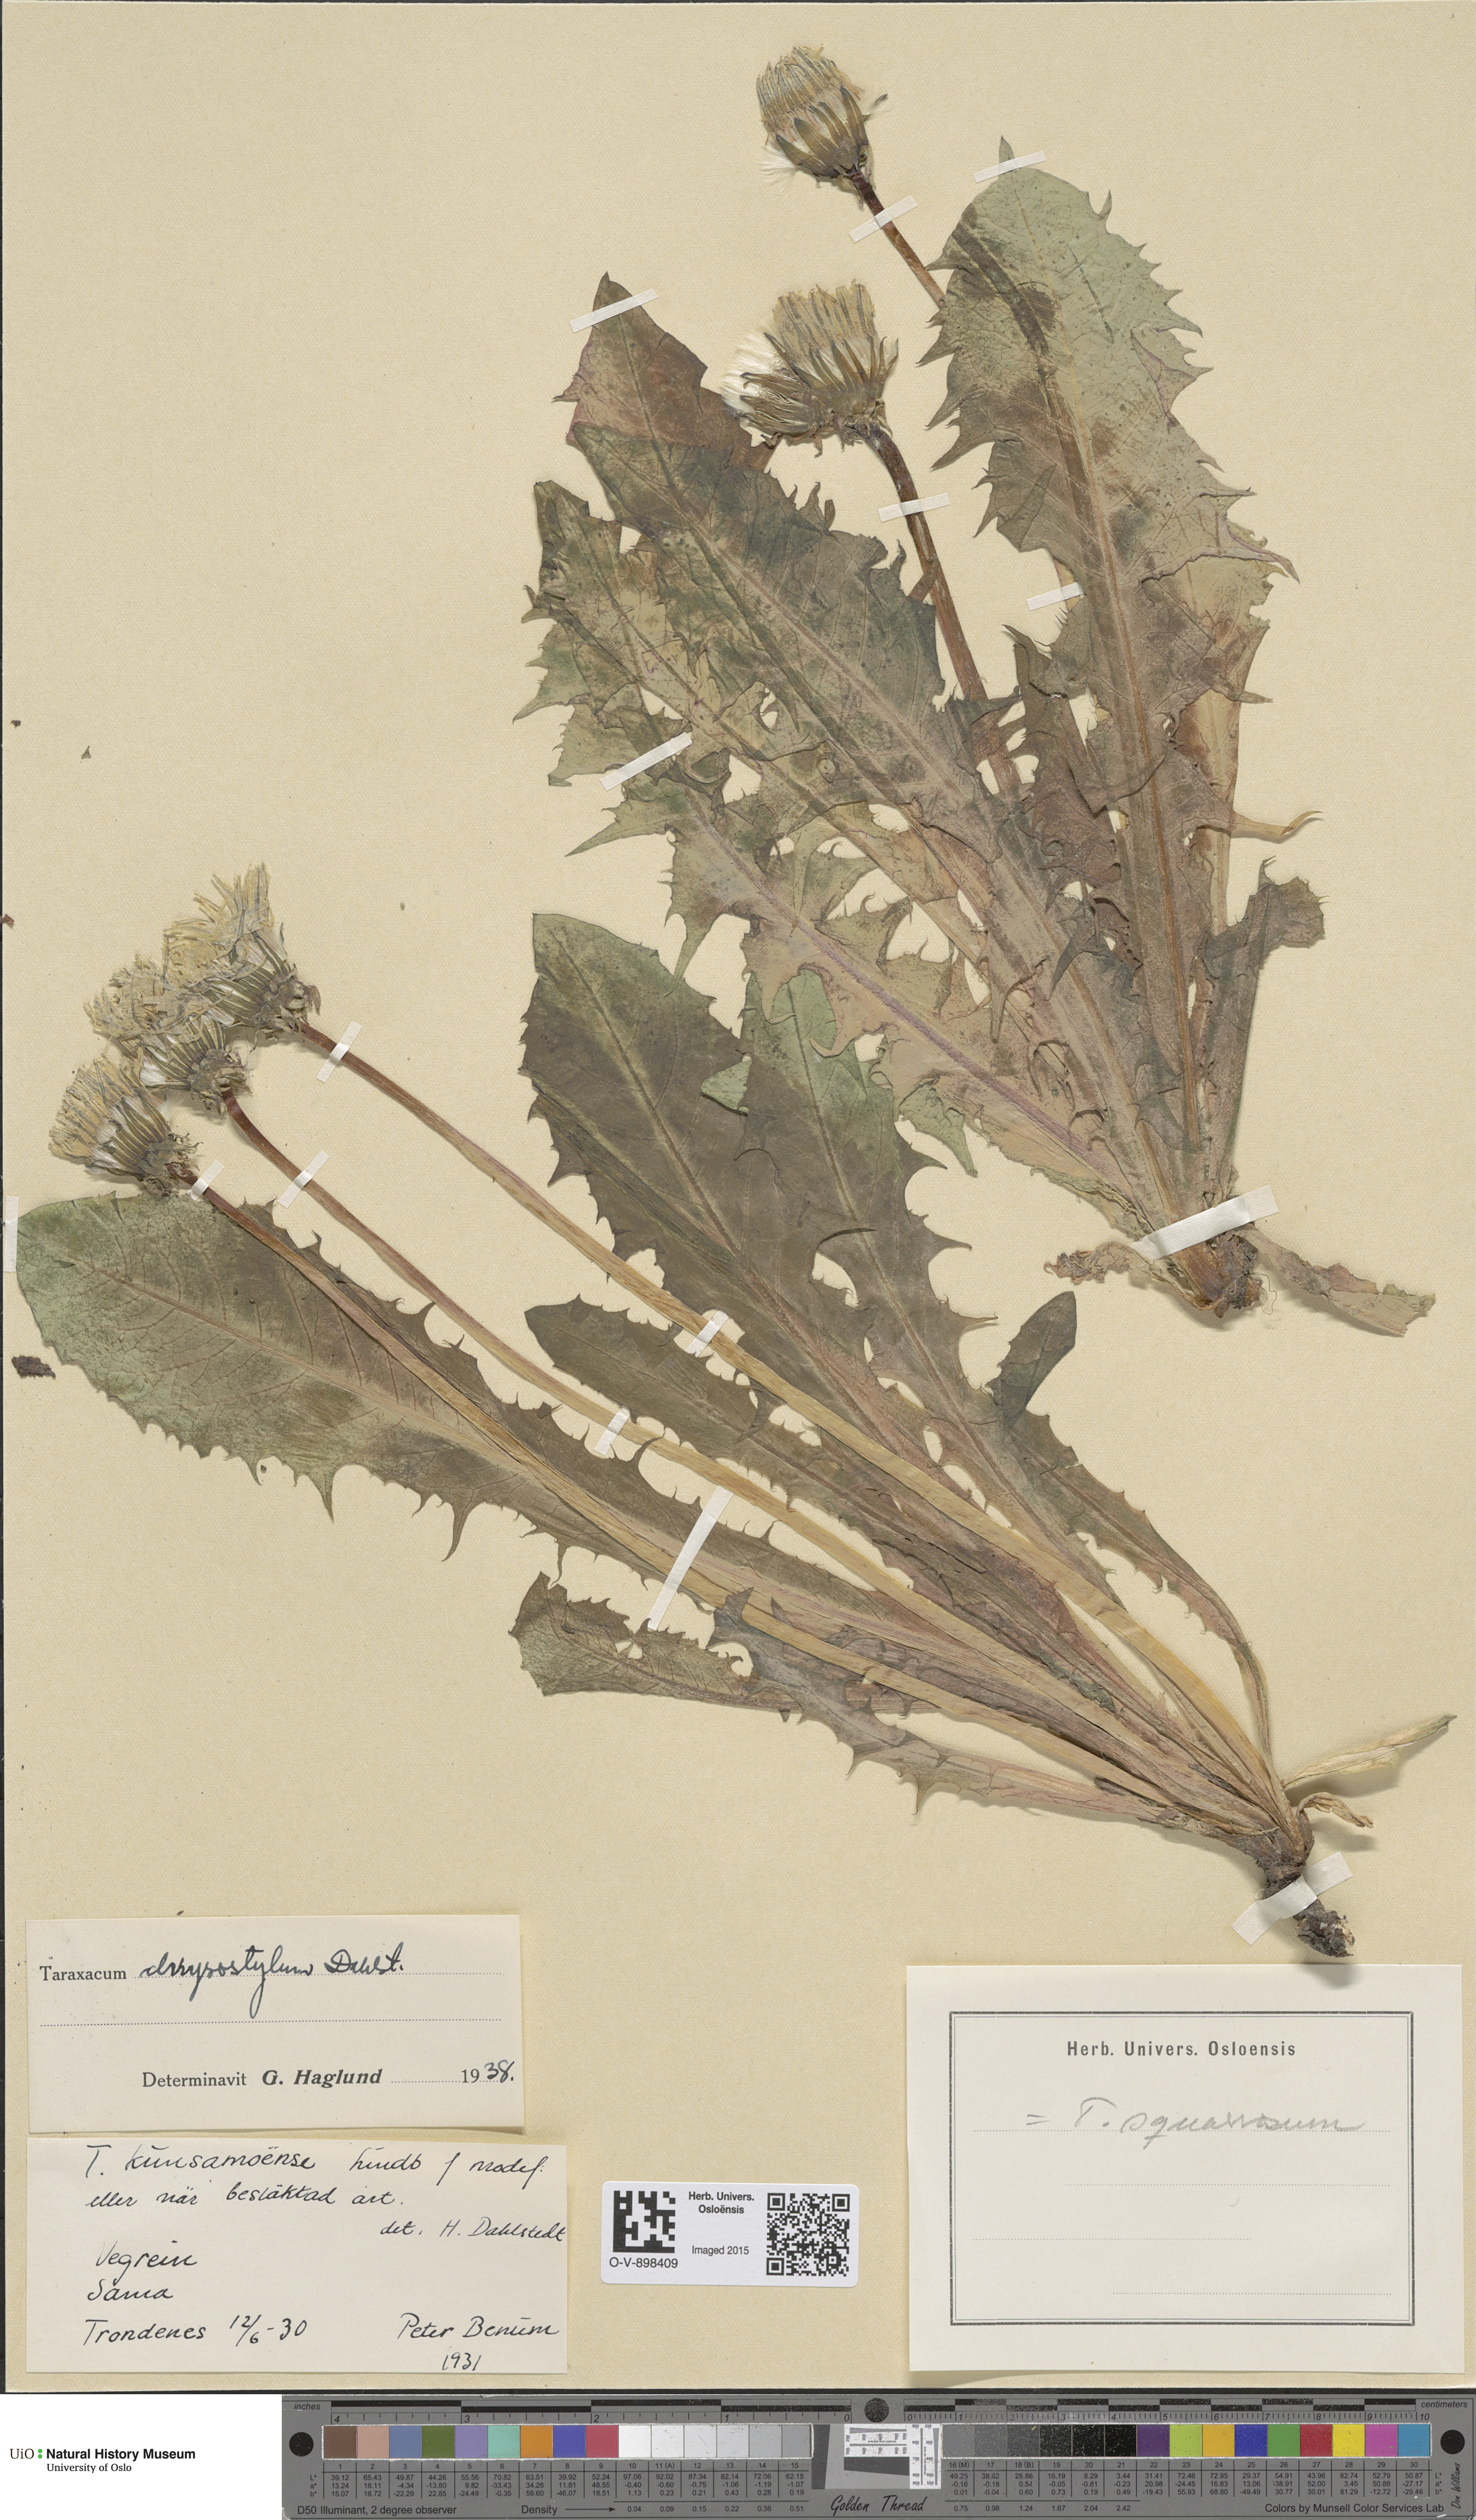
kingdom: Plantae
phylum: Tracheophyta
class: Magnoliopsida
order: Asterales
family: Asteraceae
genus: Taraxacum
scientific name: Taraxacum chrysostylum
